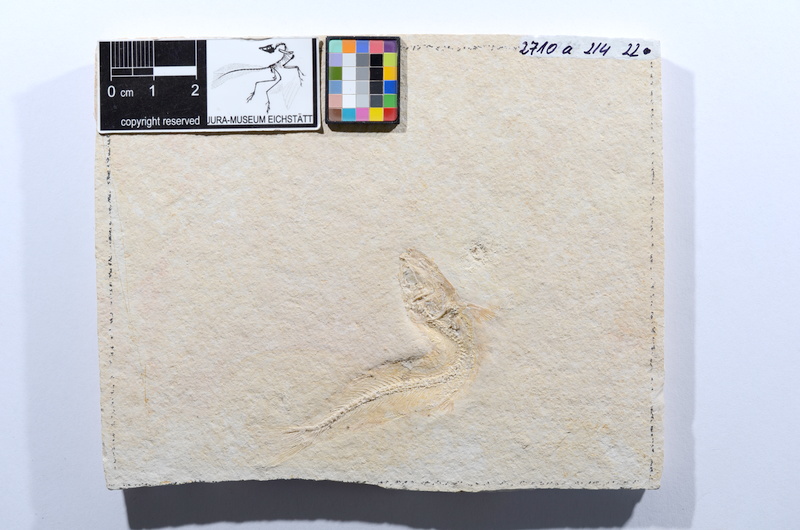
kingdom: Animalia
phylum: Chordata
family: Allothrissopidae
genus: Allothrissops
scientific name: Allothrissops mesogaster
